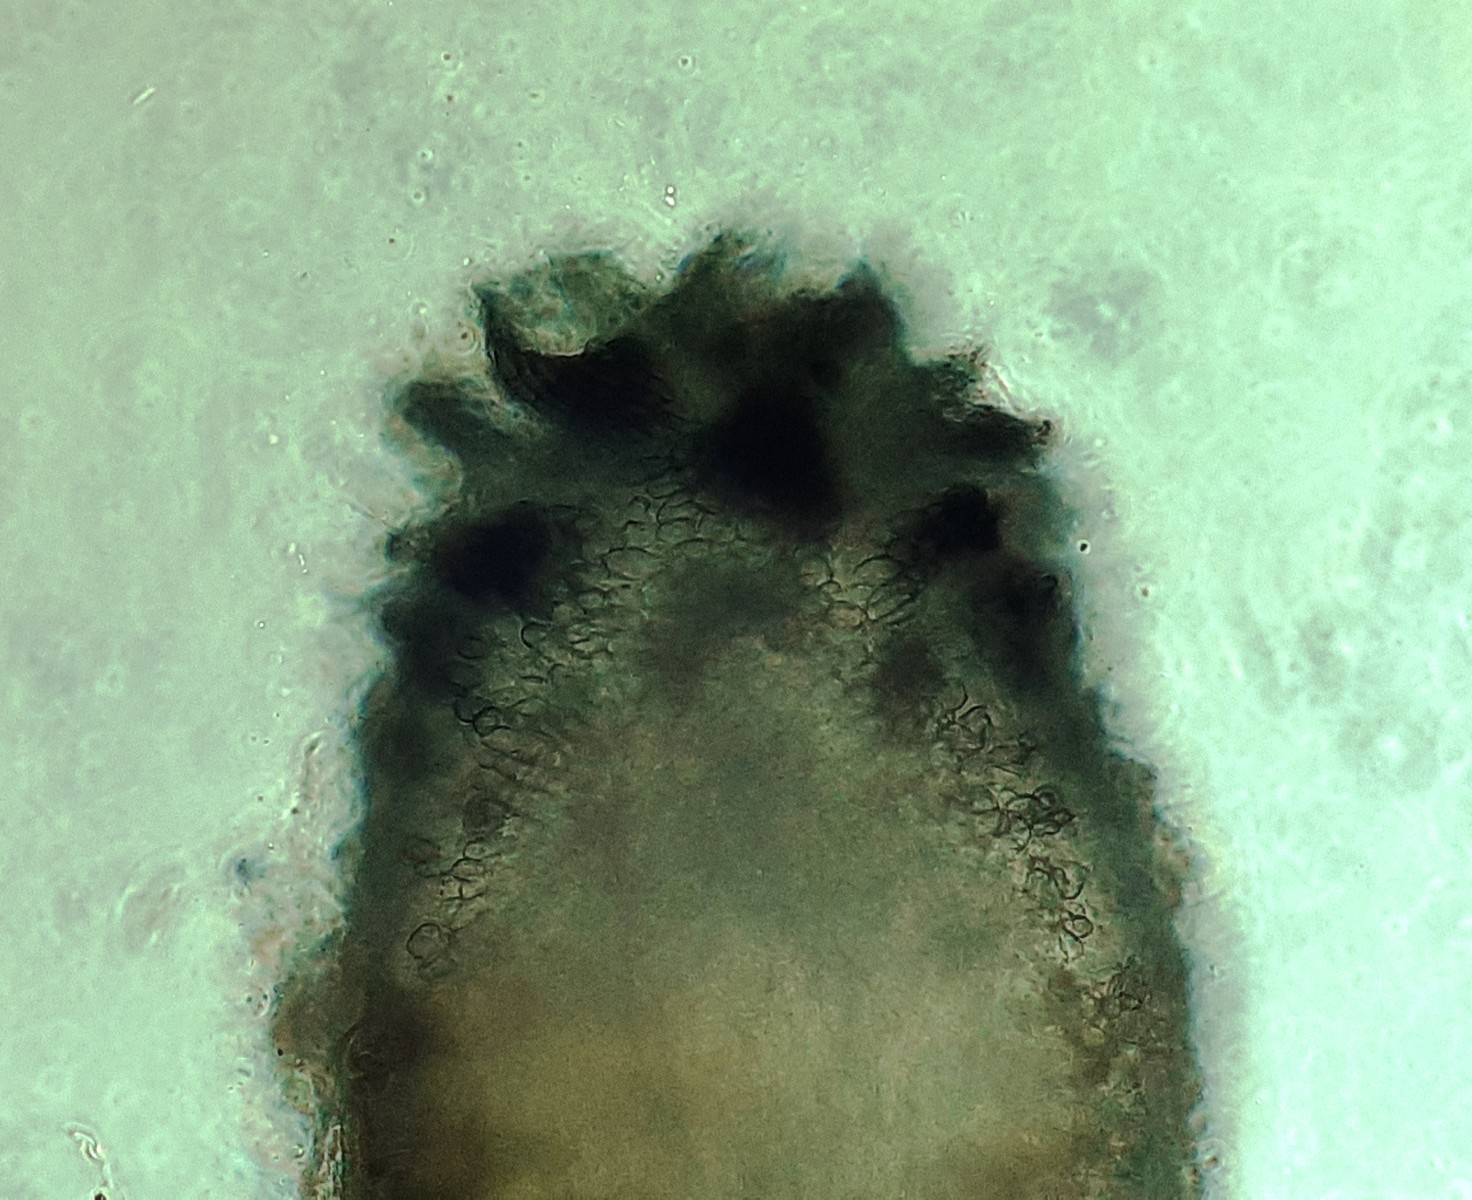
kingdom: Fungi
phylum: Ascomycota
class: Sordariomycetes
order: Sordariales
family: Neoschizotheciaceae
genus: Neoschizothecium
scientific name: Neoschizothecium tetrasporum
